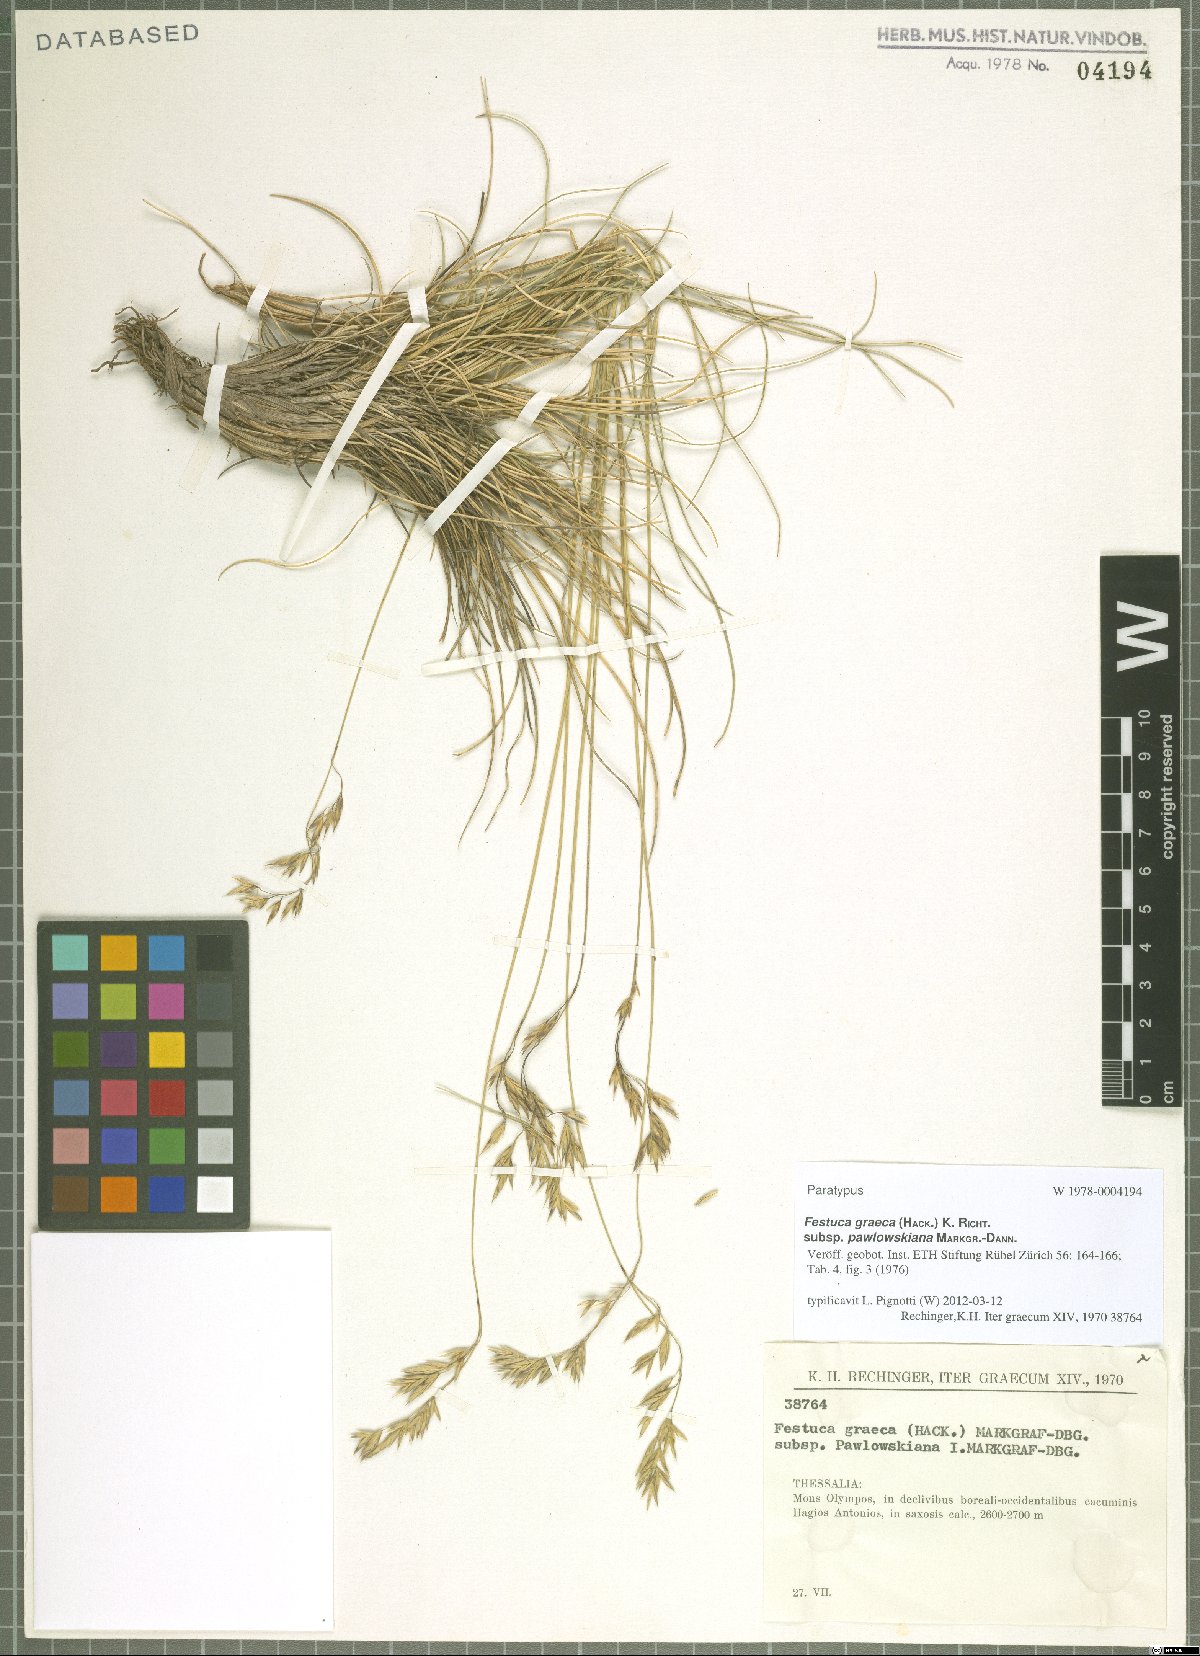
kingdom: Plantae
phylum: Tracheophyta
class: Liliopsida
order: Poales
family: Poaceae
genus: Festuca
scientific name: Festuca graeca
